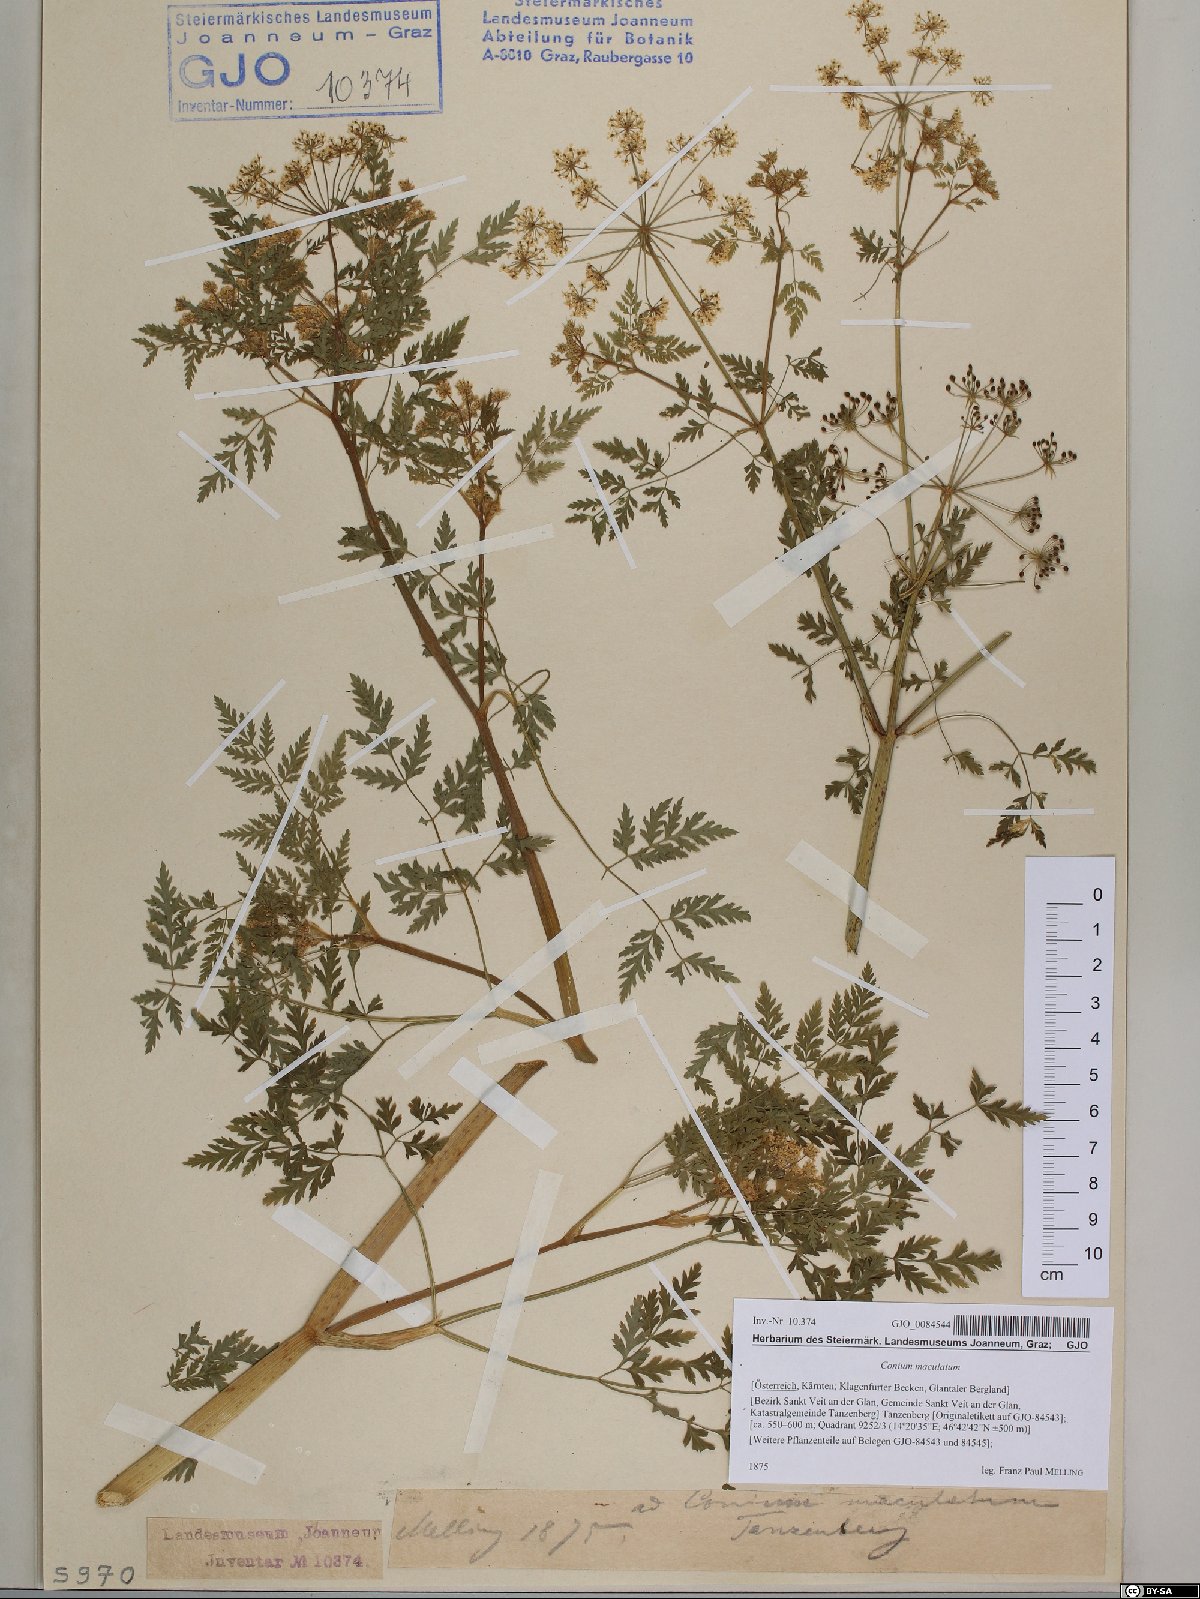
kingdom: Plantae
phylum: Tracheophyta
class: Magnoliopsida
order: Apiales
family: Apiaceae
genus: Conium
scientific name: Conium maculatum
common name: Hemlock
